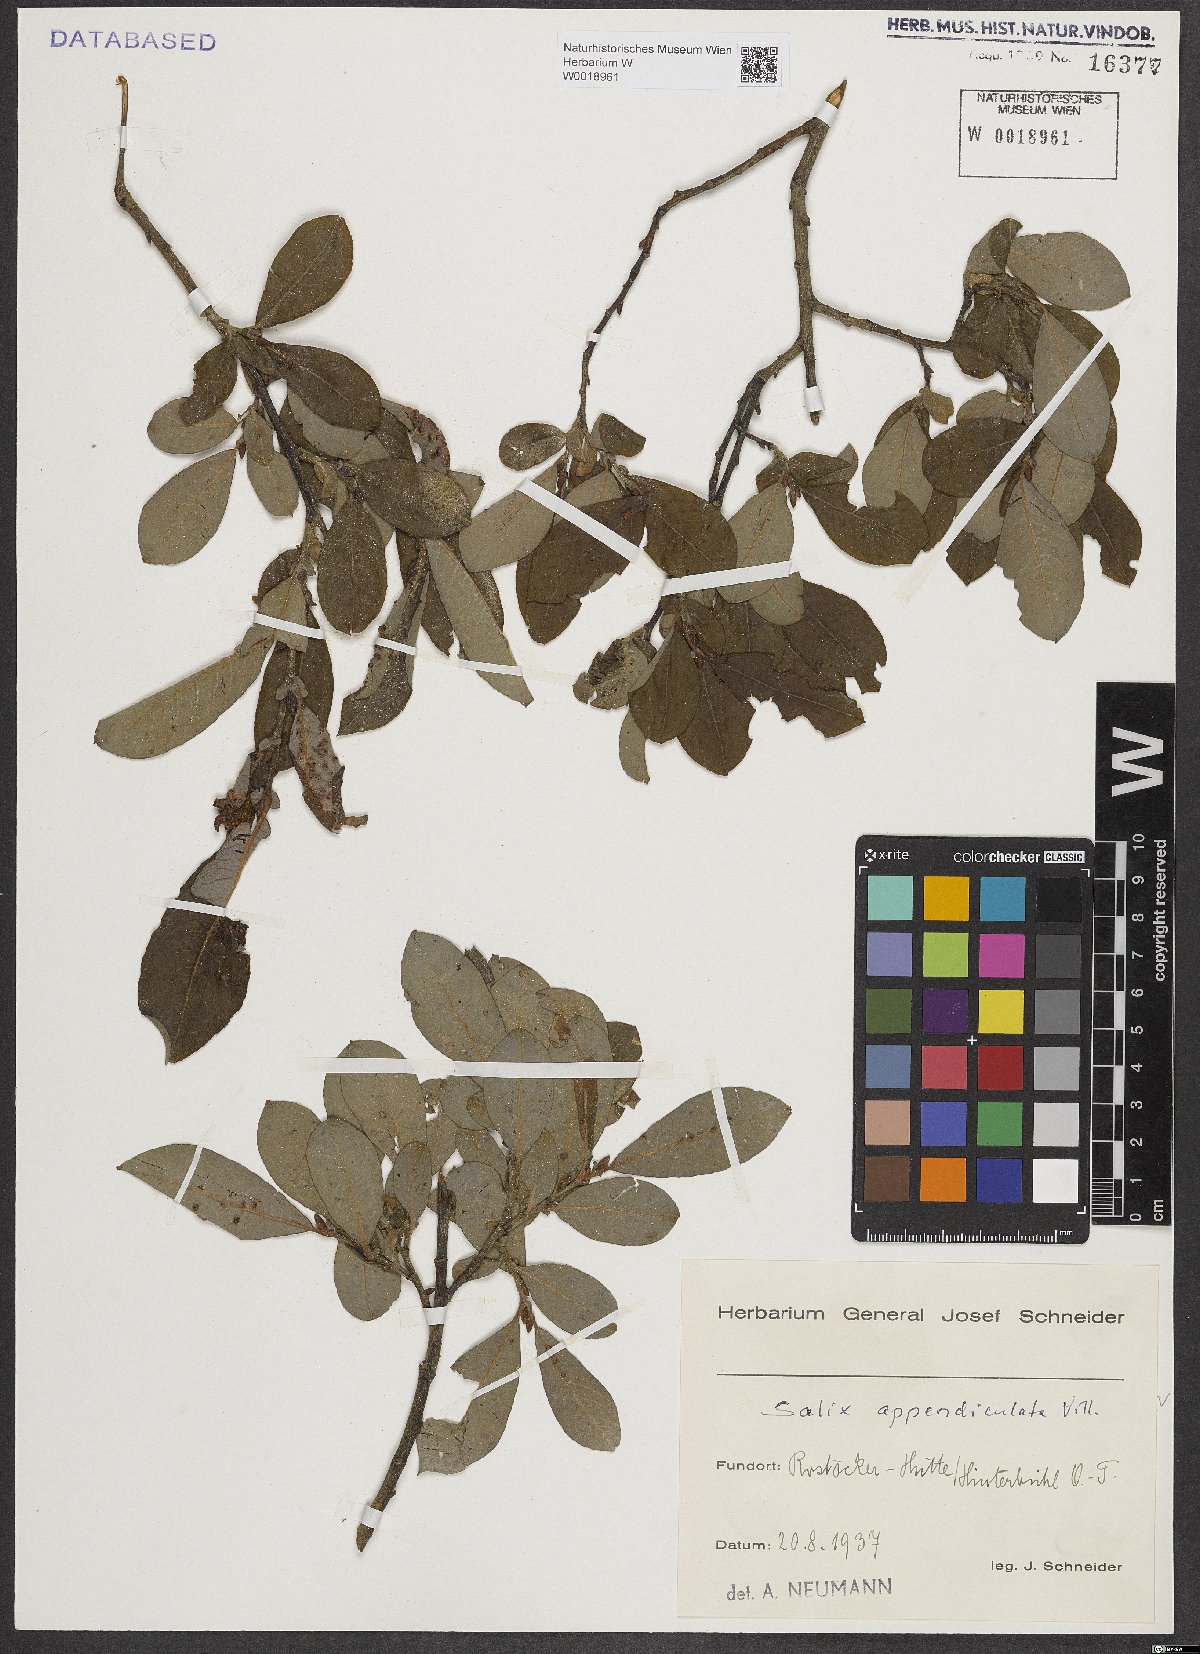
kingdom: Plantae
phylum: Tracheophyta
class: Magnoliopsida
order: Malpighiales
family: Salicaceae
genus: Salix
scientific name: Salix appendiculata
